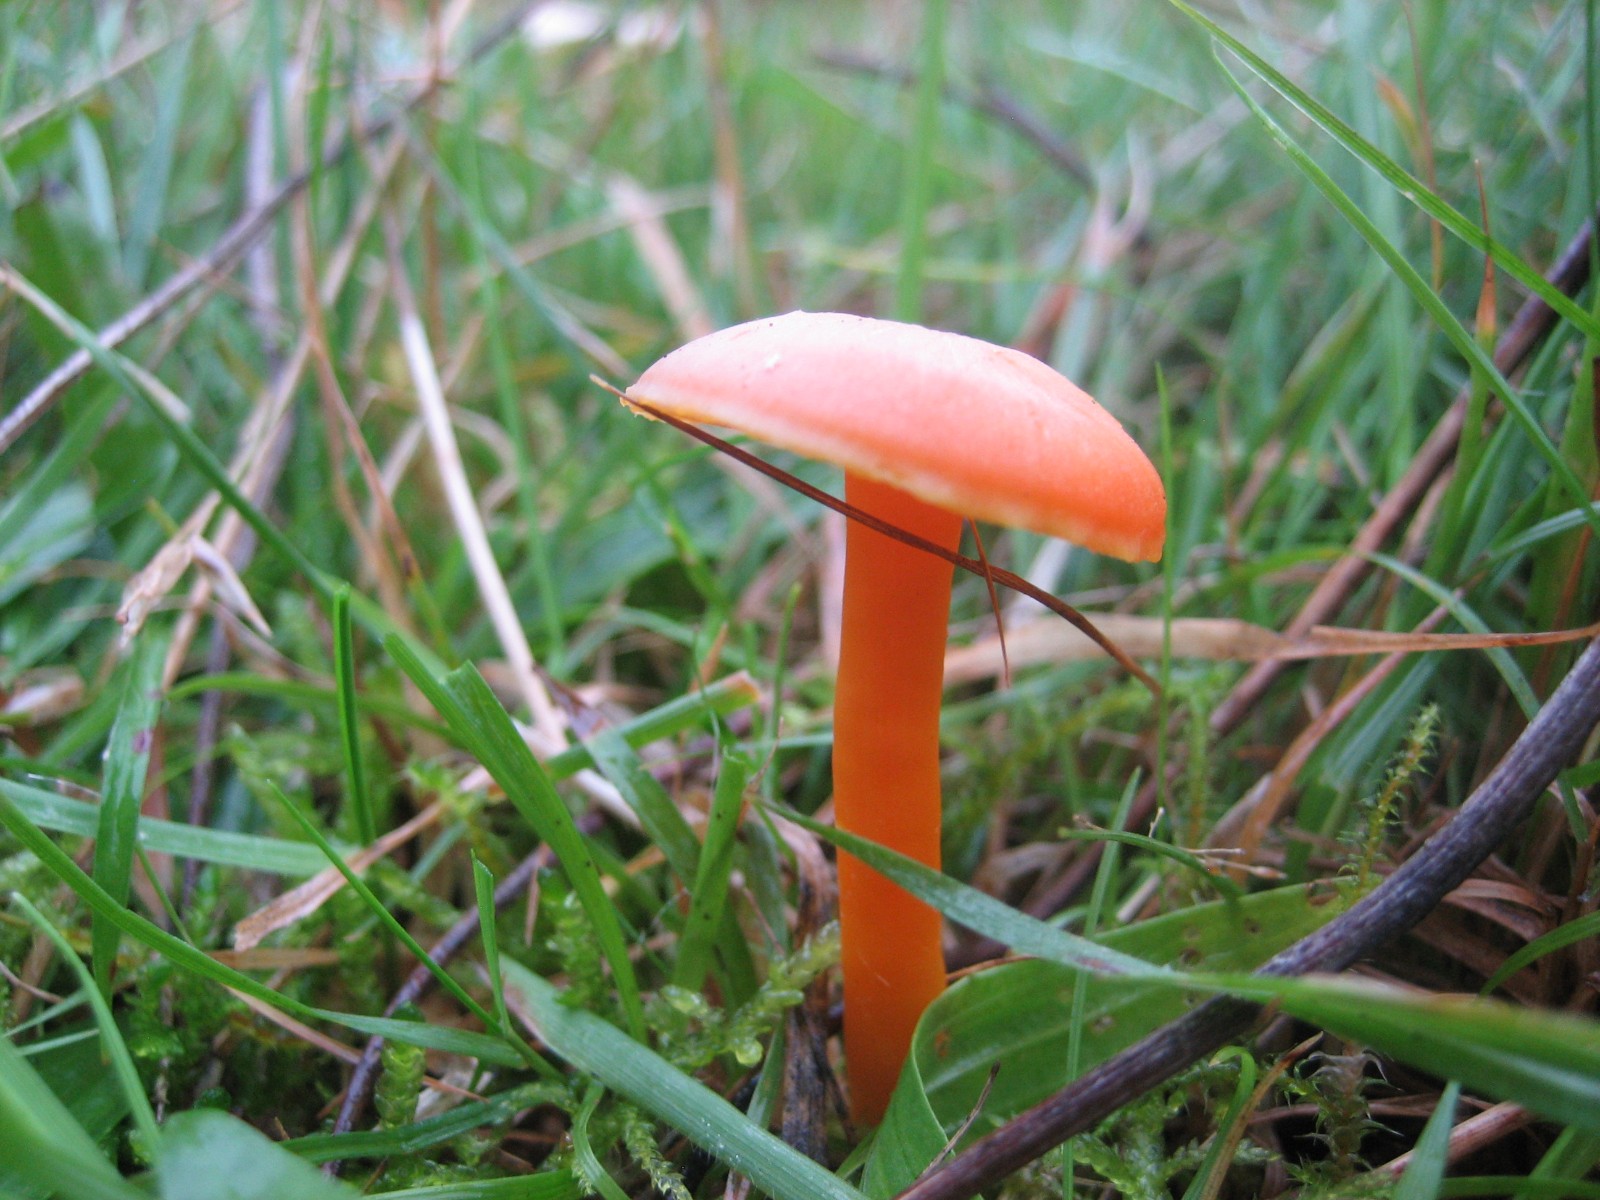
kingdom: Fungi
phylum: Basidiomycota
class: Agaricomycetes
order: Agaricales
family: Hygrophoraceae
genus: Hygrocybe
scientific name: Hygrocybe reidii
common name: honning-vokshat
